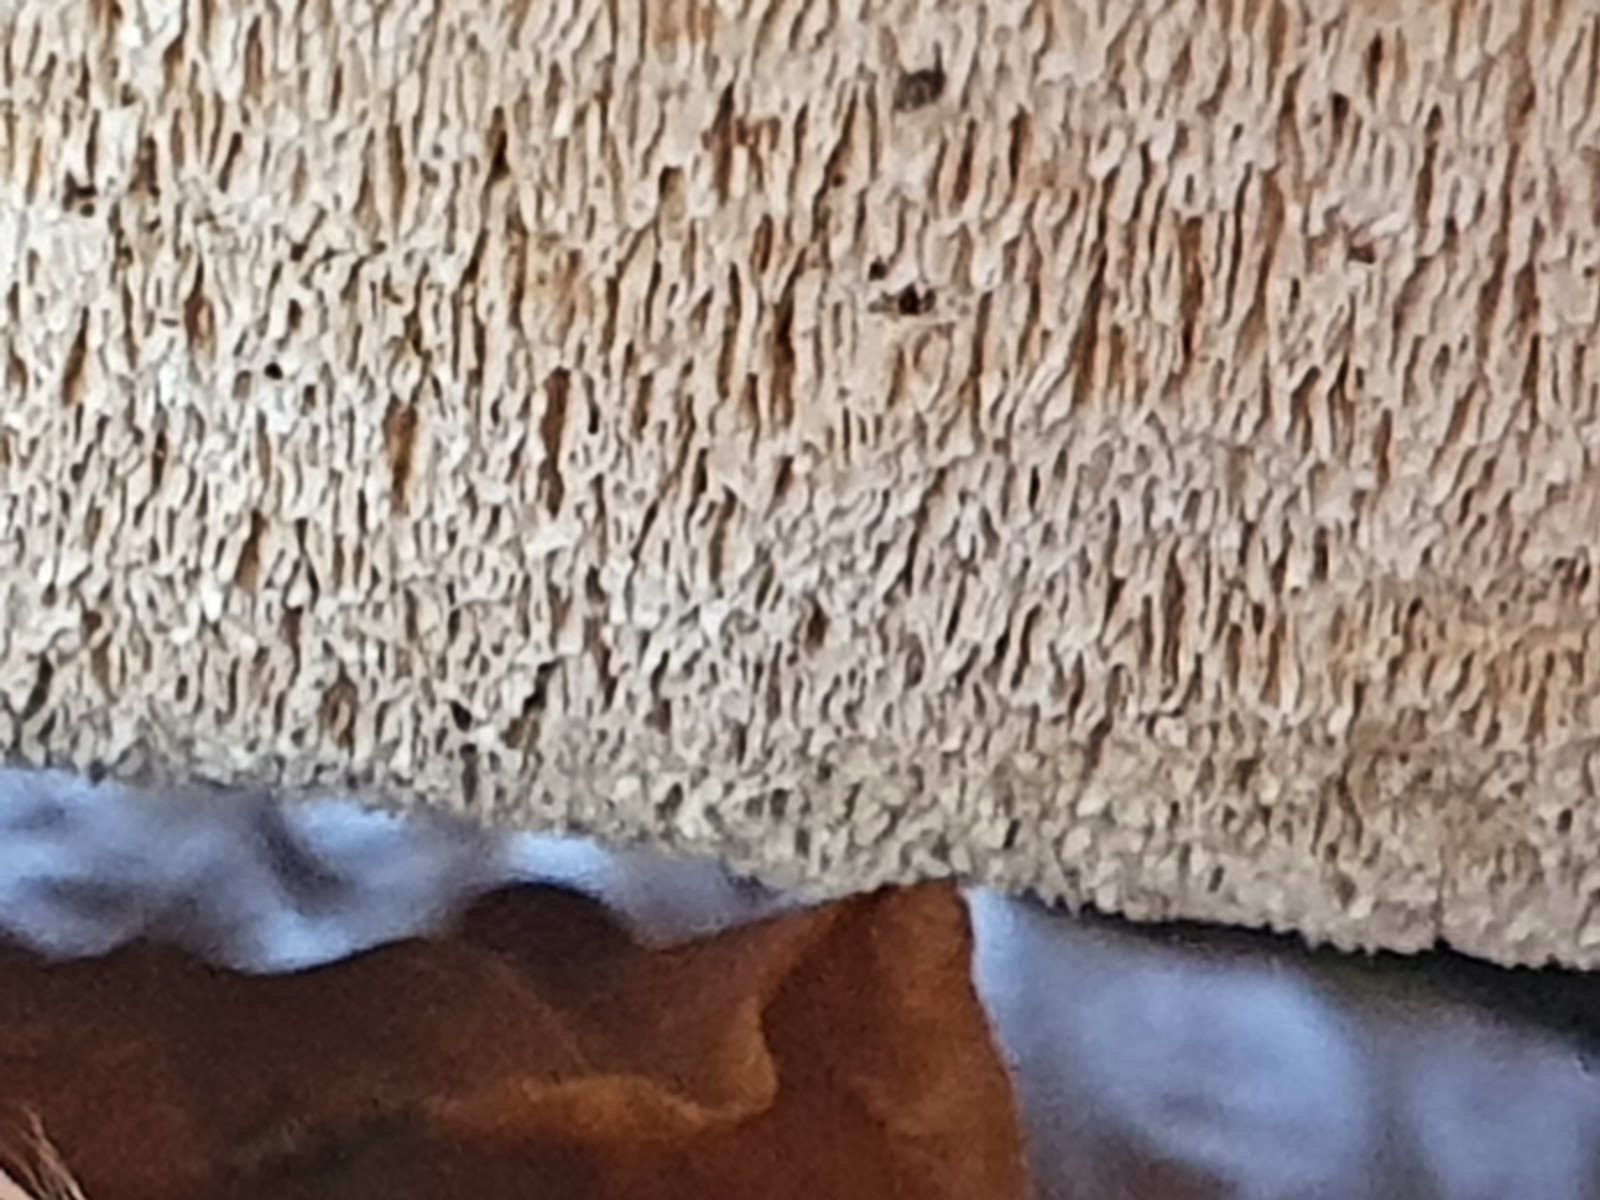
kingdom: Fungi
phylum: Basidiomycota
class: Agaricomycetes
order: Hymenochaetales
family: Schizoporaceae
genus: Xylodon
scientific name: Xylodon
